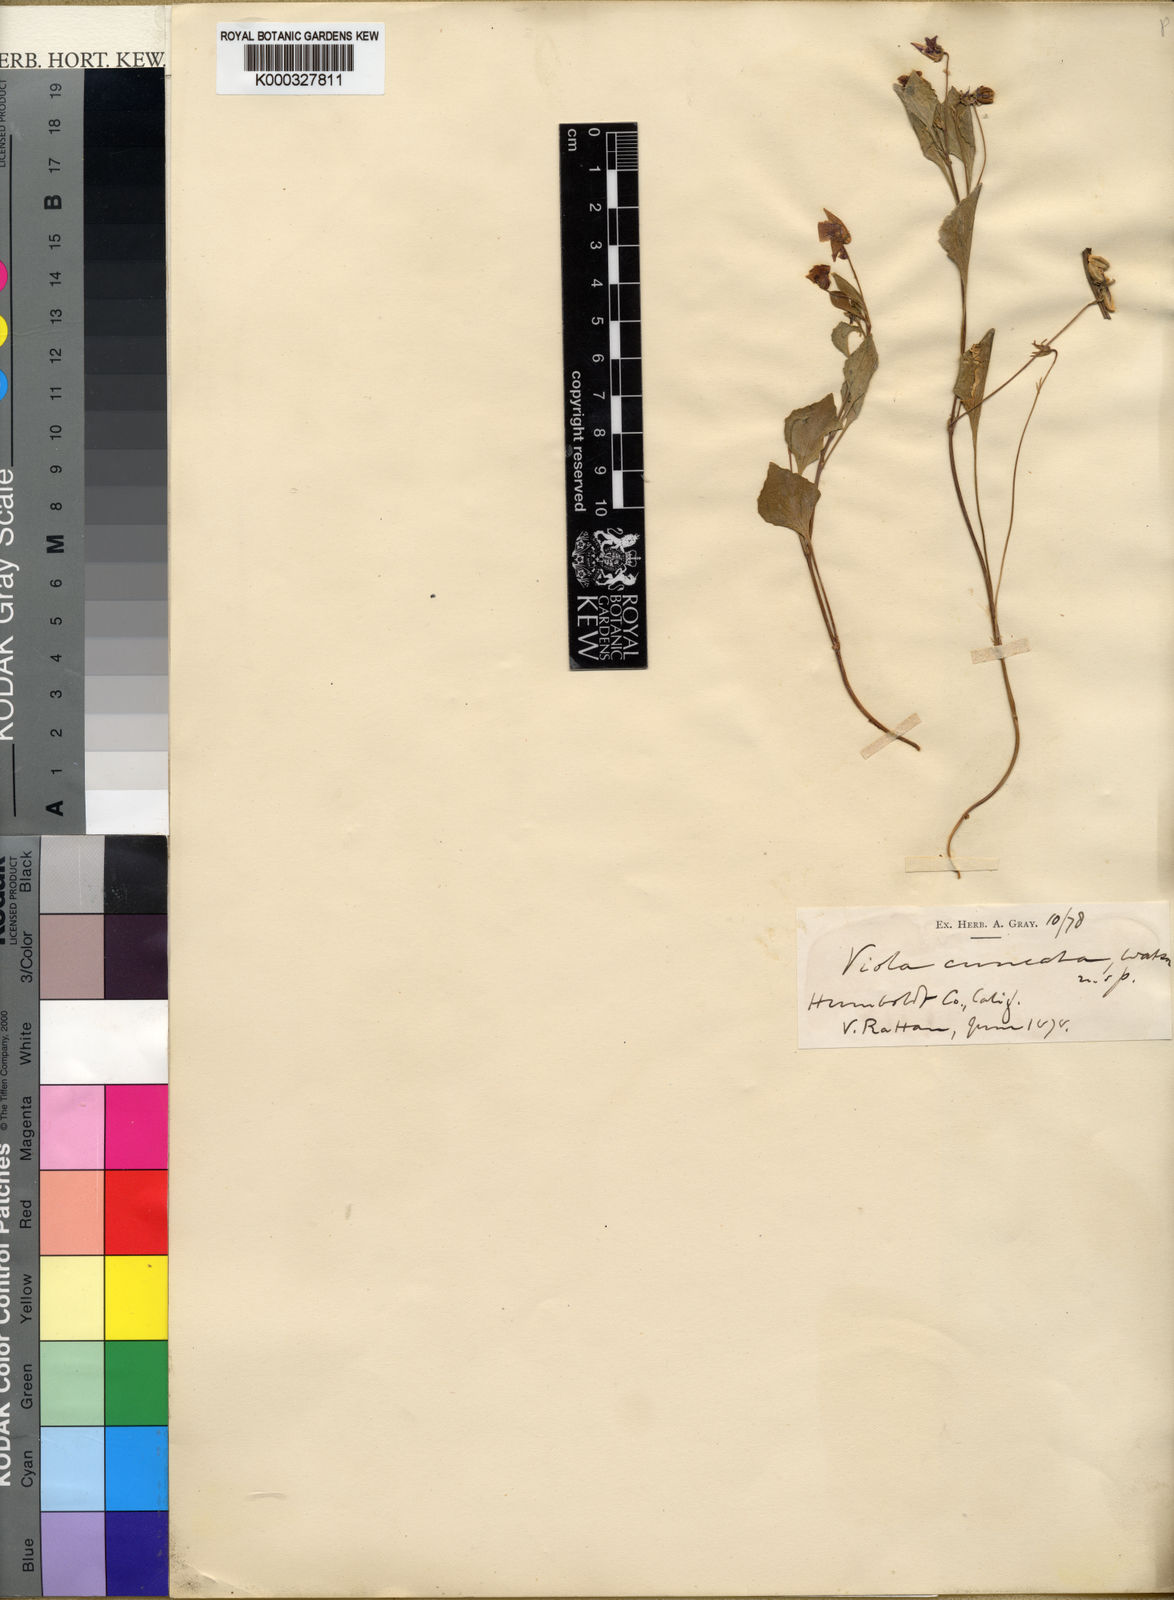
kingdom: Plantae
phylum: Tracheophyta
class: Magnoliopsida
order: Malpighiales
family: Violaceae
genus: Viola
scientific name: Viola cuneata
